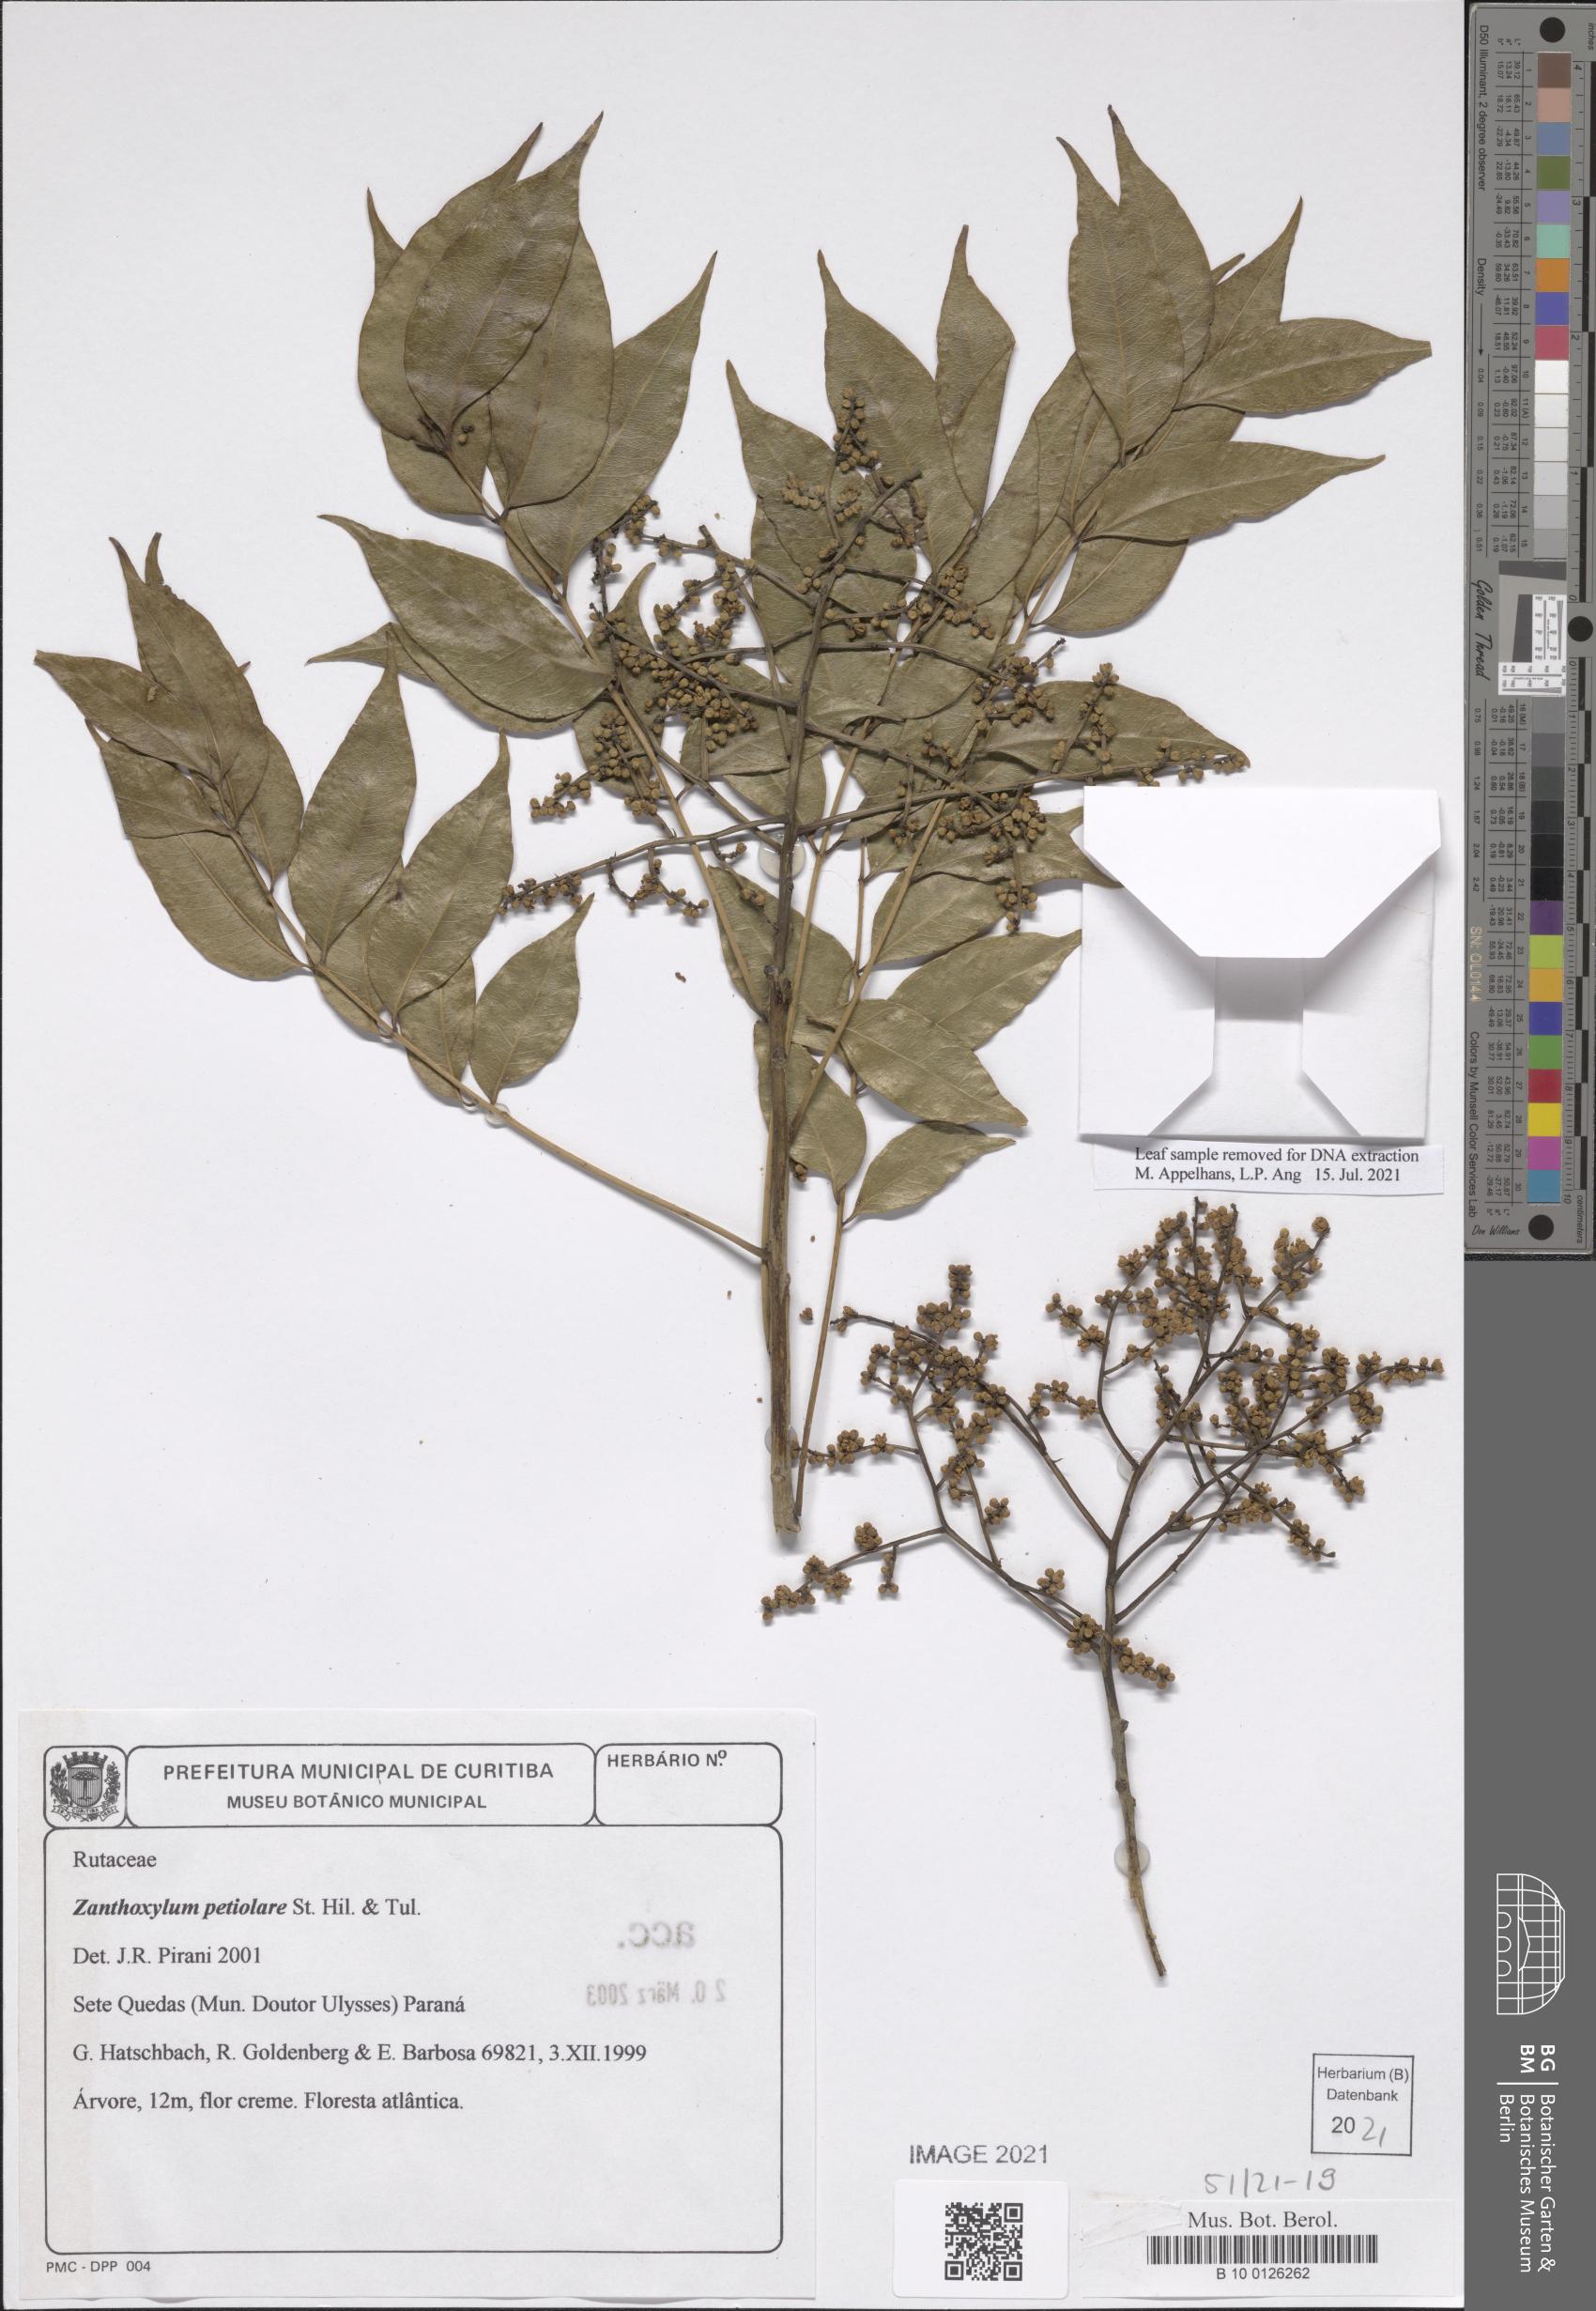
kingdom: Plantae
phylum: Tracheophyta
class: Magnoliopsida
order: Sapindales
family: Rutaceae
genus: Zanthoxylum
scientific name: Zanthoxylum petiolare
